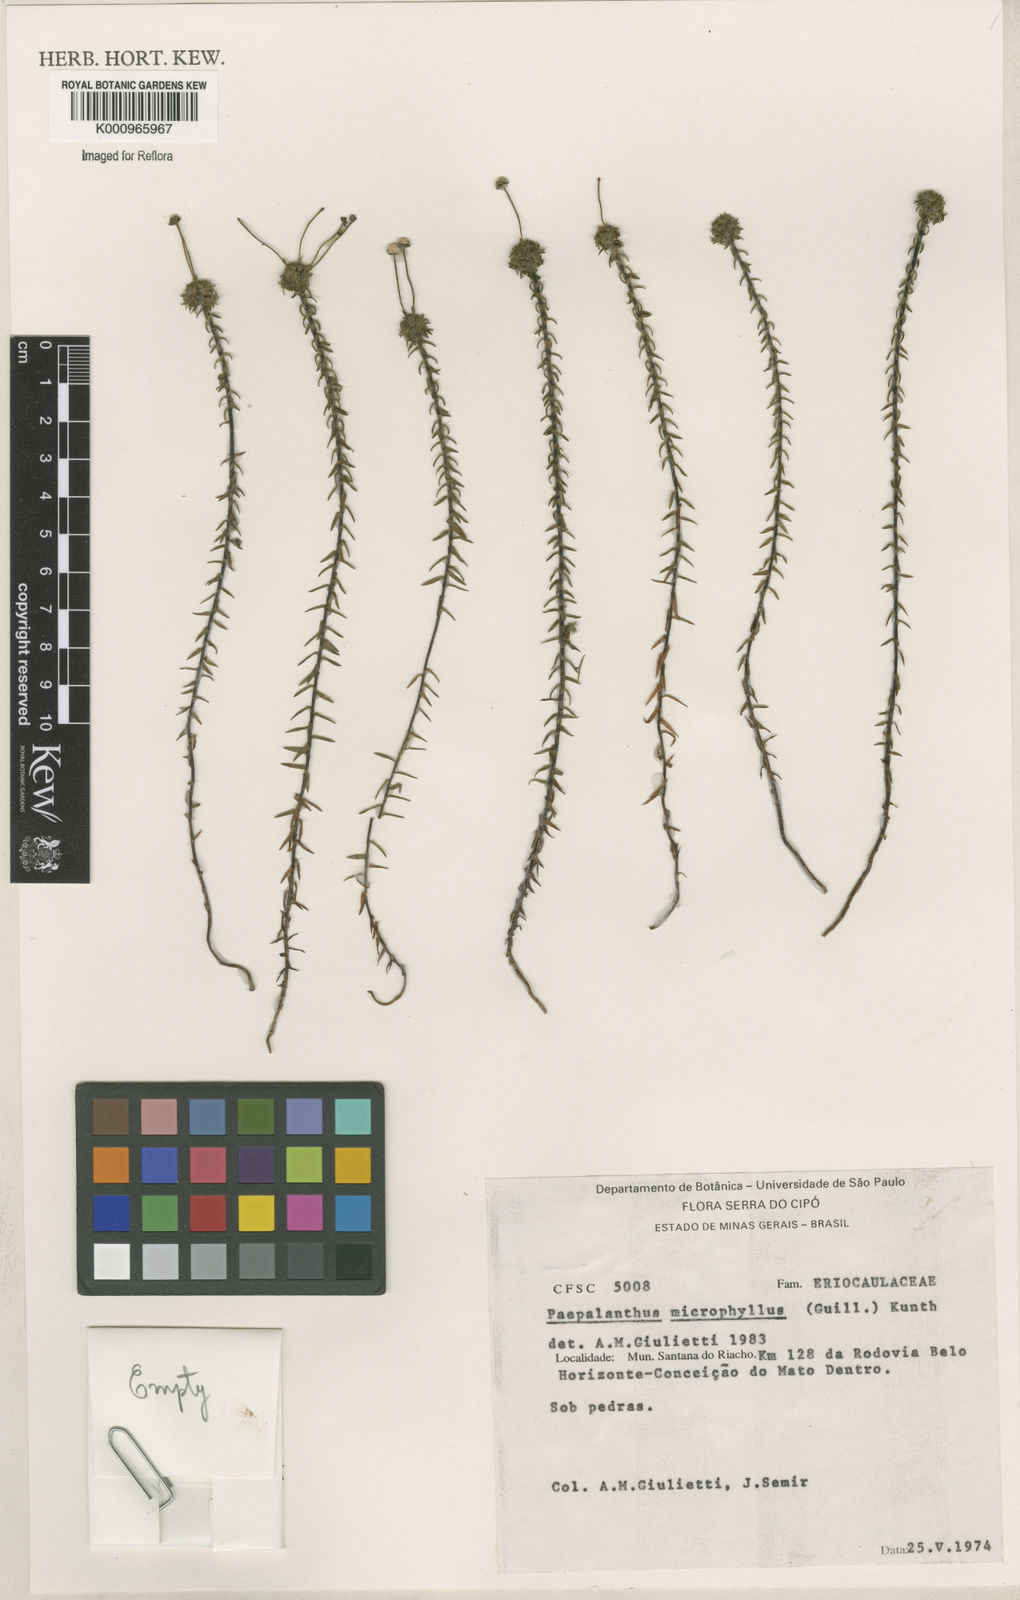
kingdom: Plantae
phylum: Tracheophyta
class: Liliopsida
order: Poales
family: Eriocaulaceae
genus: Paepalanthus
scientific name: Paepalanthus dasynema
